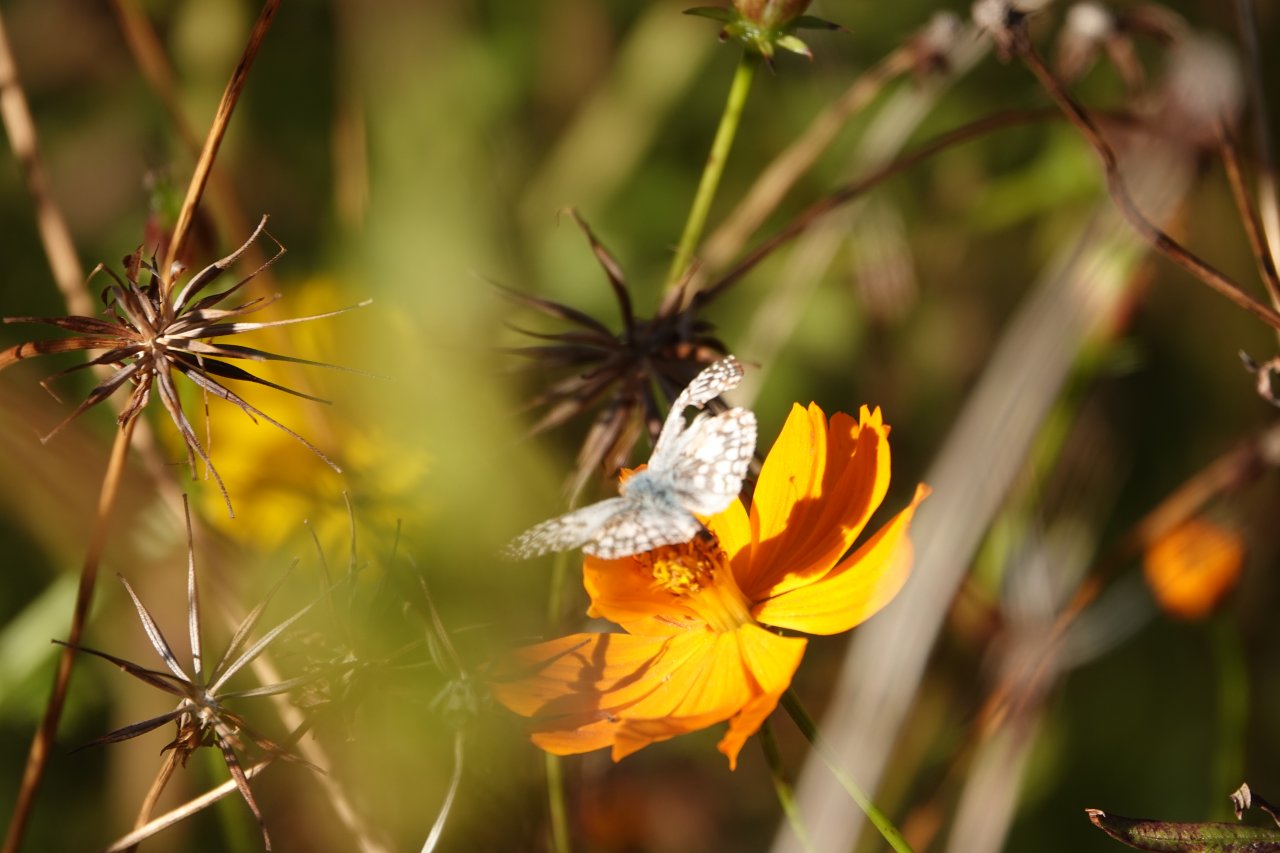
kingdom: Animalia
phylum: Arthropoda
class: Insecta
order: Lepidoptera
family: Hesperiidae
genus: Pyrgus
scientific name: Pyrgus oileus
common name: Tropical Checkered-Skipper
